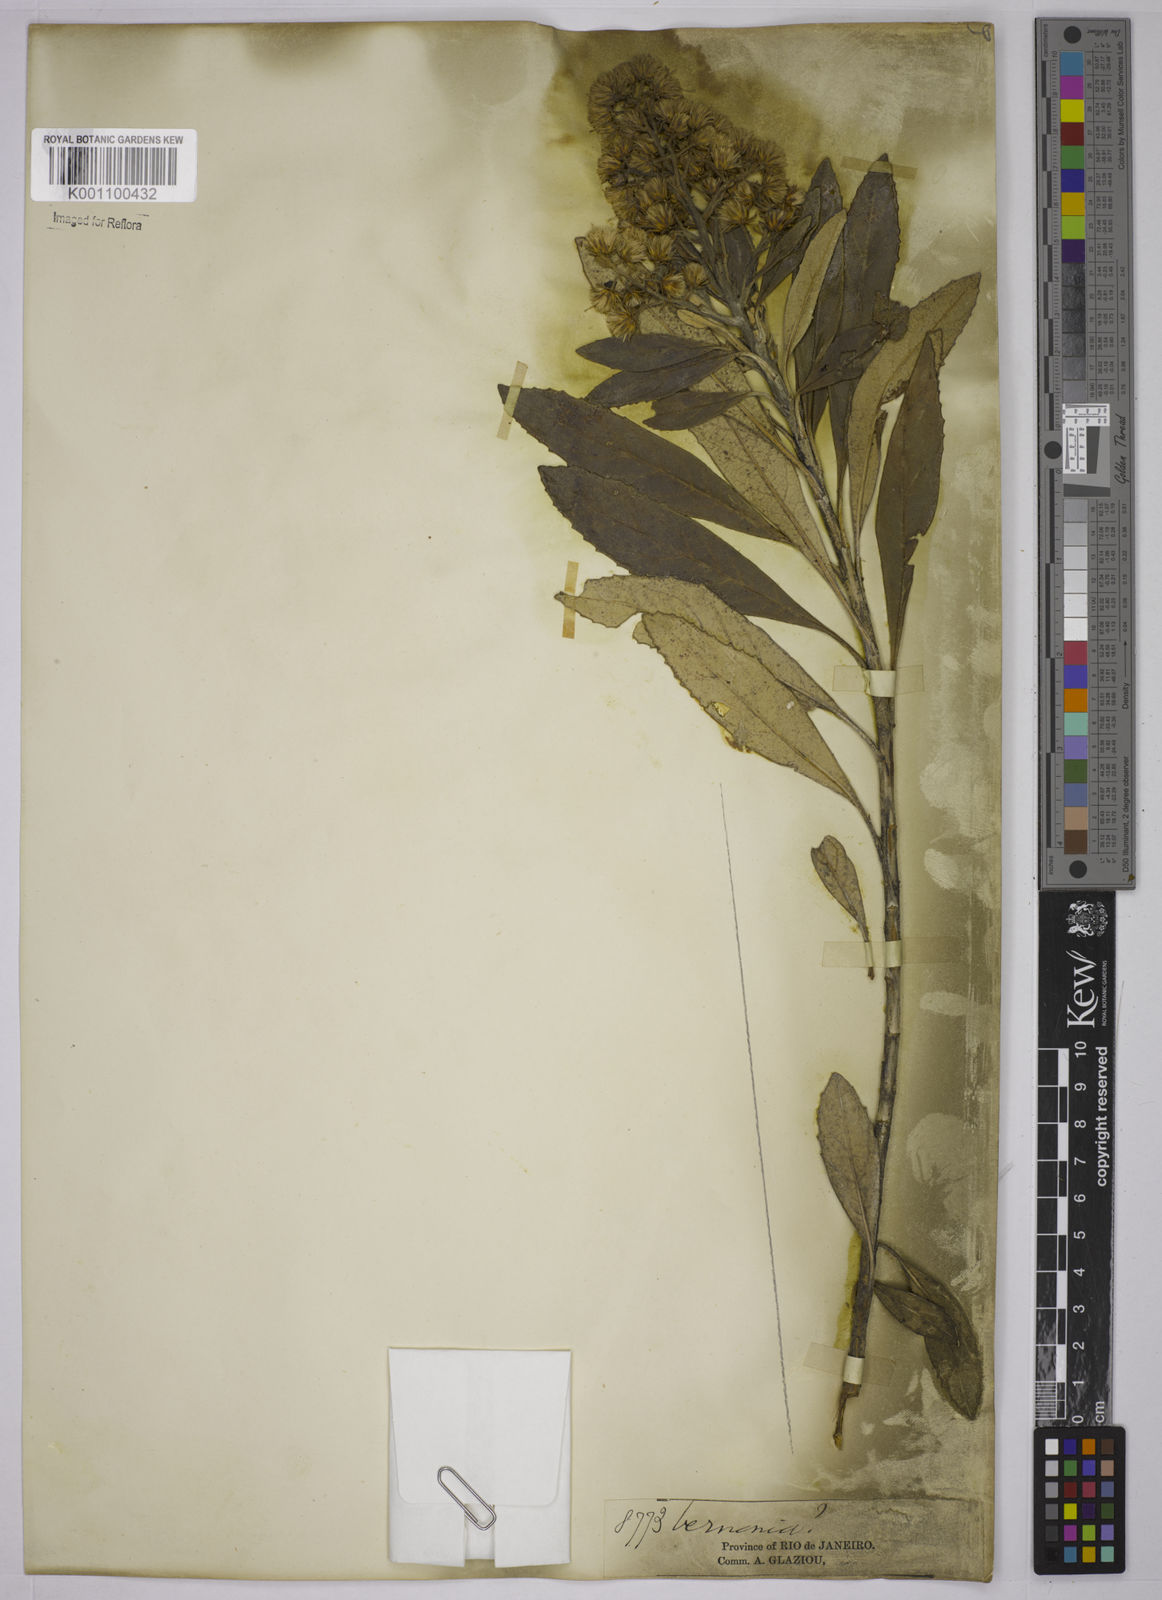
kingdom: Plantae
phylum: Tracheophyta
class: Magnoliopsida
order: Asterales
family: Asteraceae
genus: Baccharis
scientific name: Baccharis
